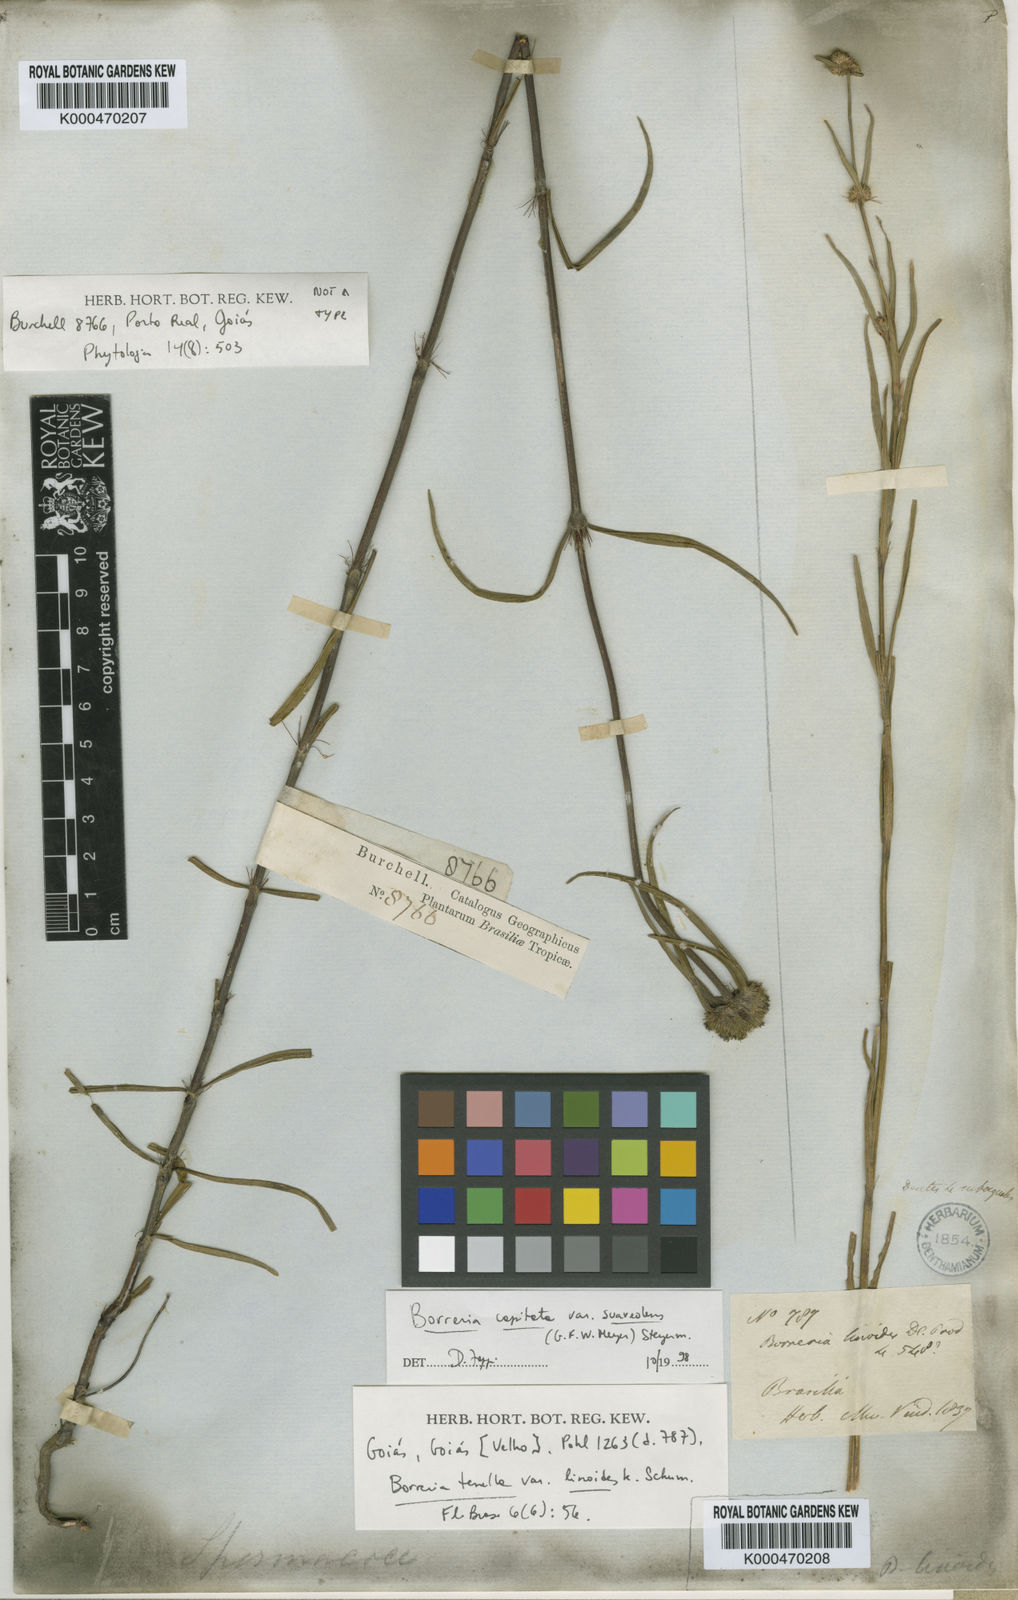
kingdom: Plantae
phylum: Tracheophyta
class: Magnoliopsida
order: Gentianales
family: Rubiaceae
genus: Spermacoce
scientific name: Spermacoce
